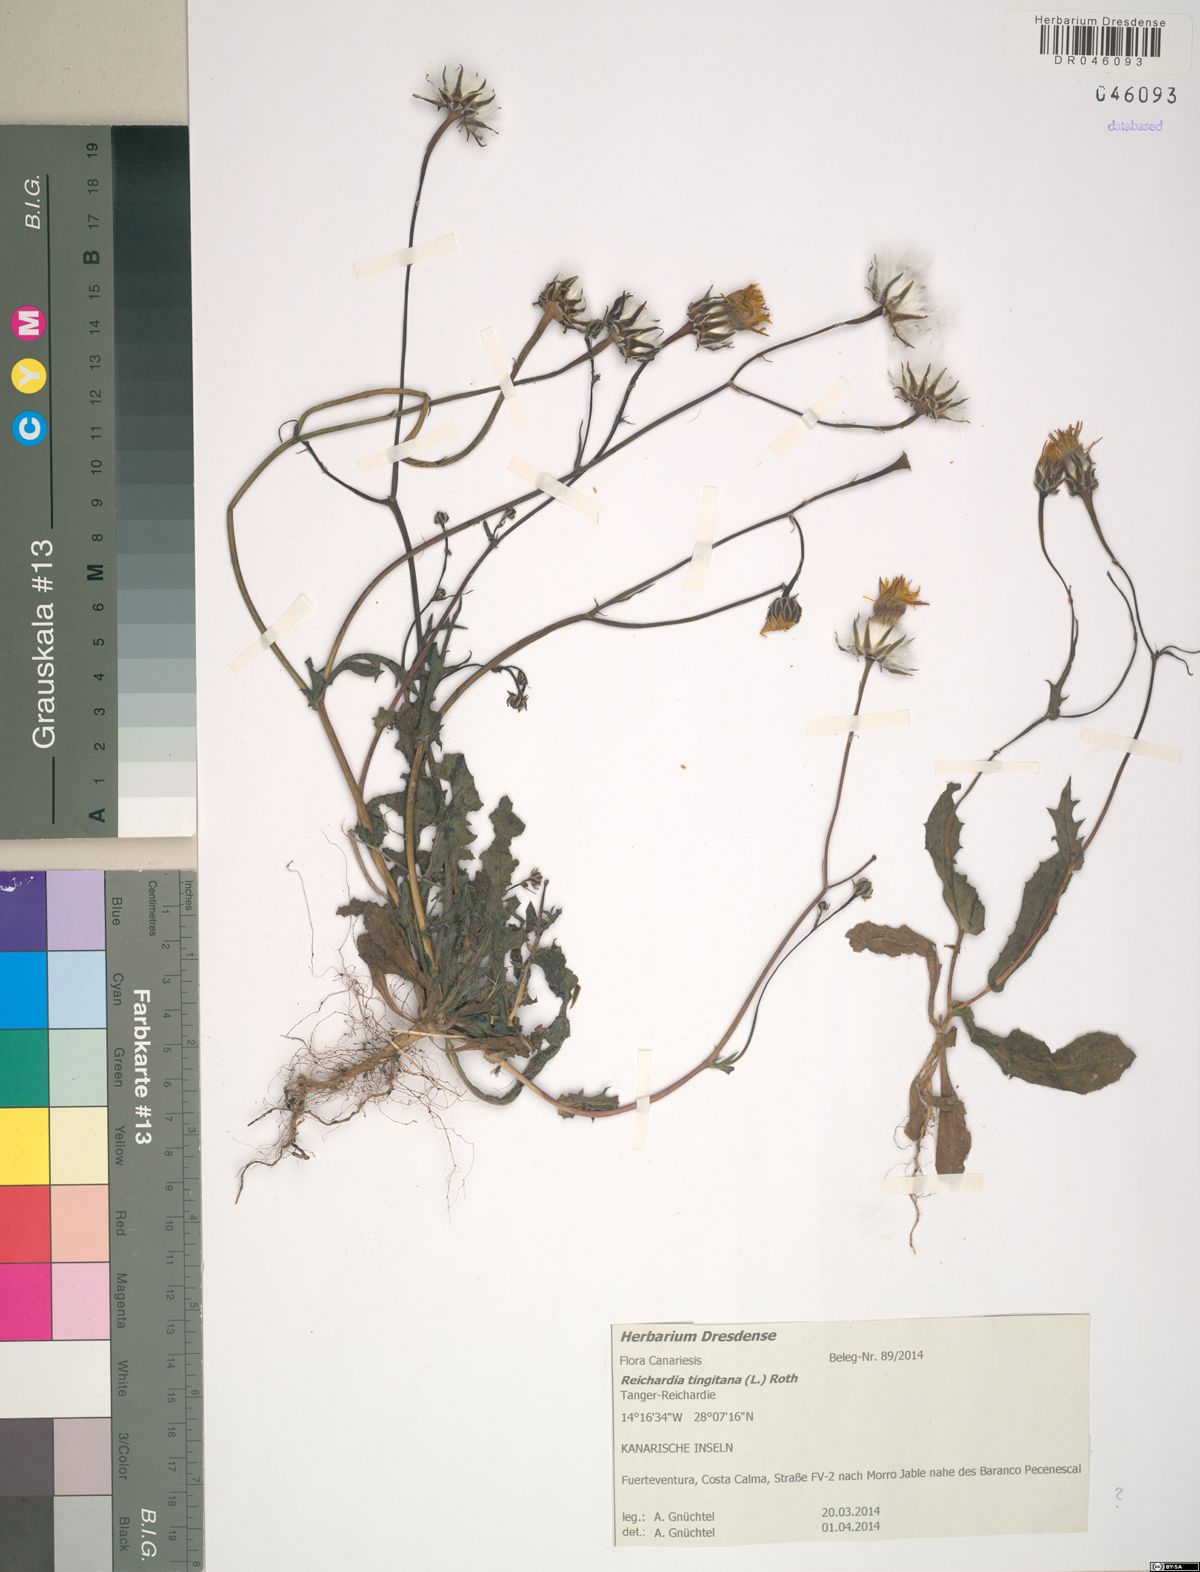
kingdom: Plantae
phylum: Tracheophyta
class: Magnoliopsida
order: Asterales
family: Asteraceae
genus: Reichardia
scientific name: Reichardia tingitana
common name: Reichardia
